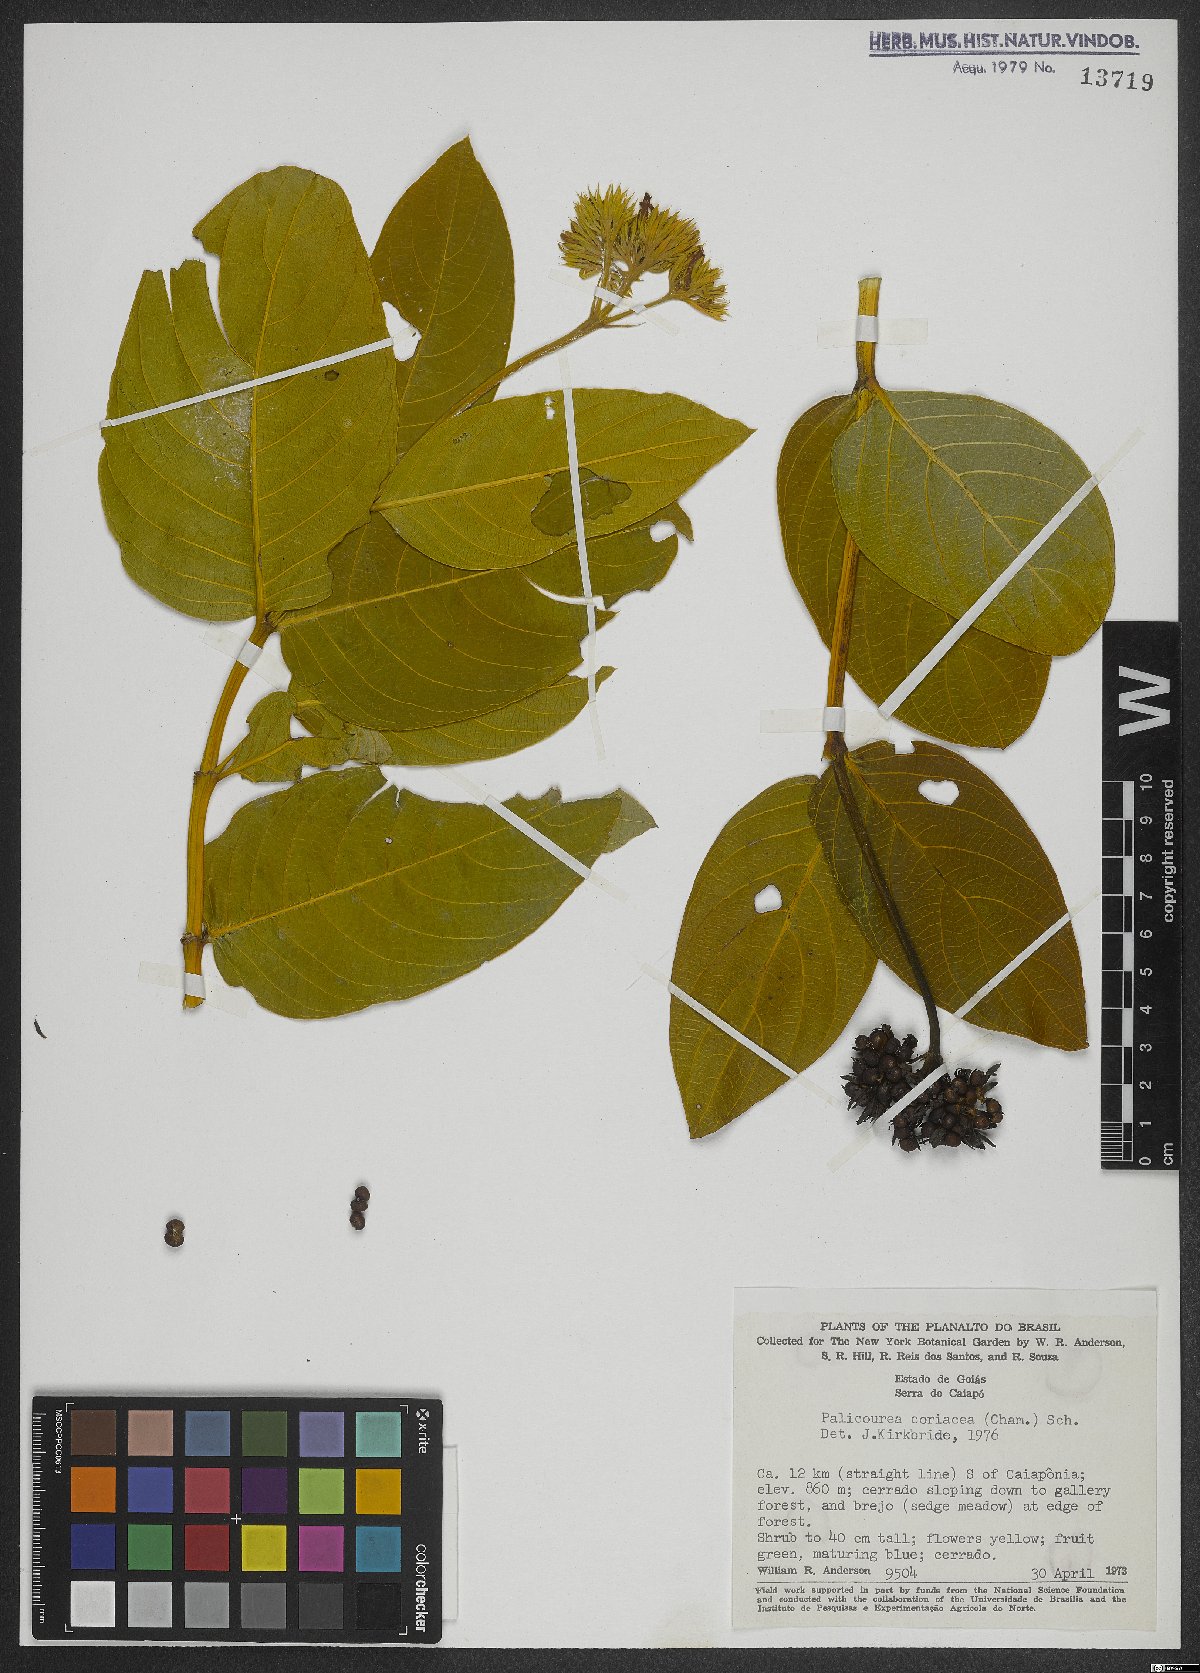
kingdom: Plantae
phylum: Tracheophyta
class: Magnoliopsida
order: Gentianales
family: Rubiaceae
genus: Palicourea
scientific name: Palicourea coriacea
